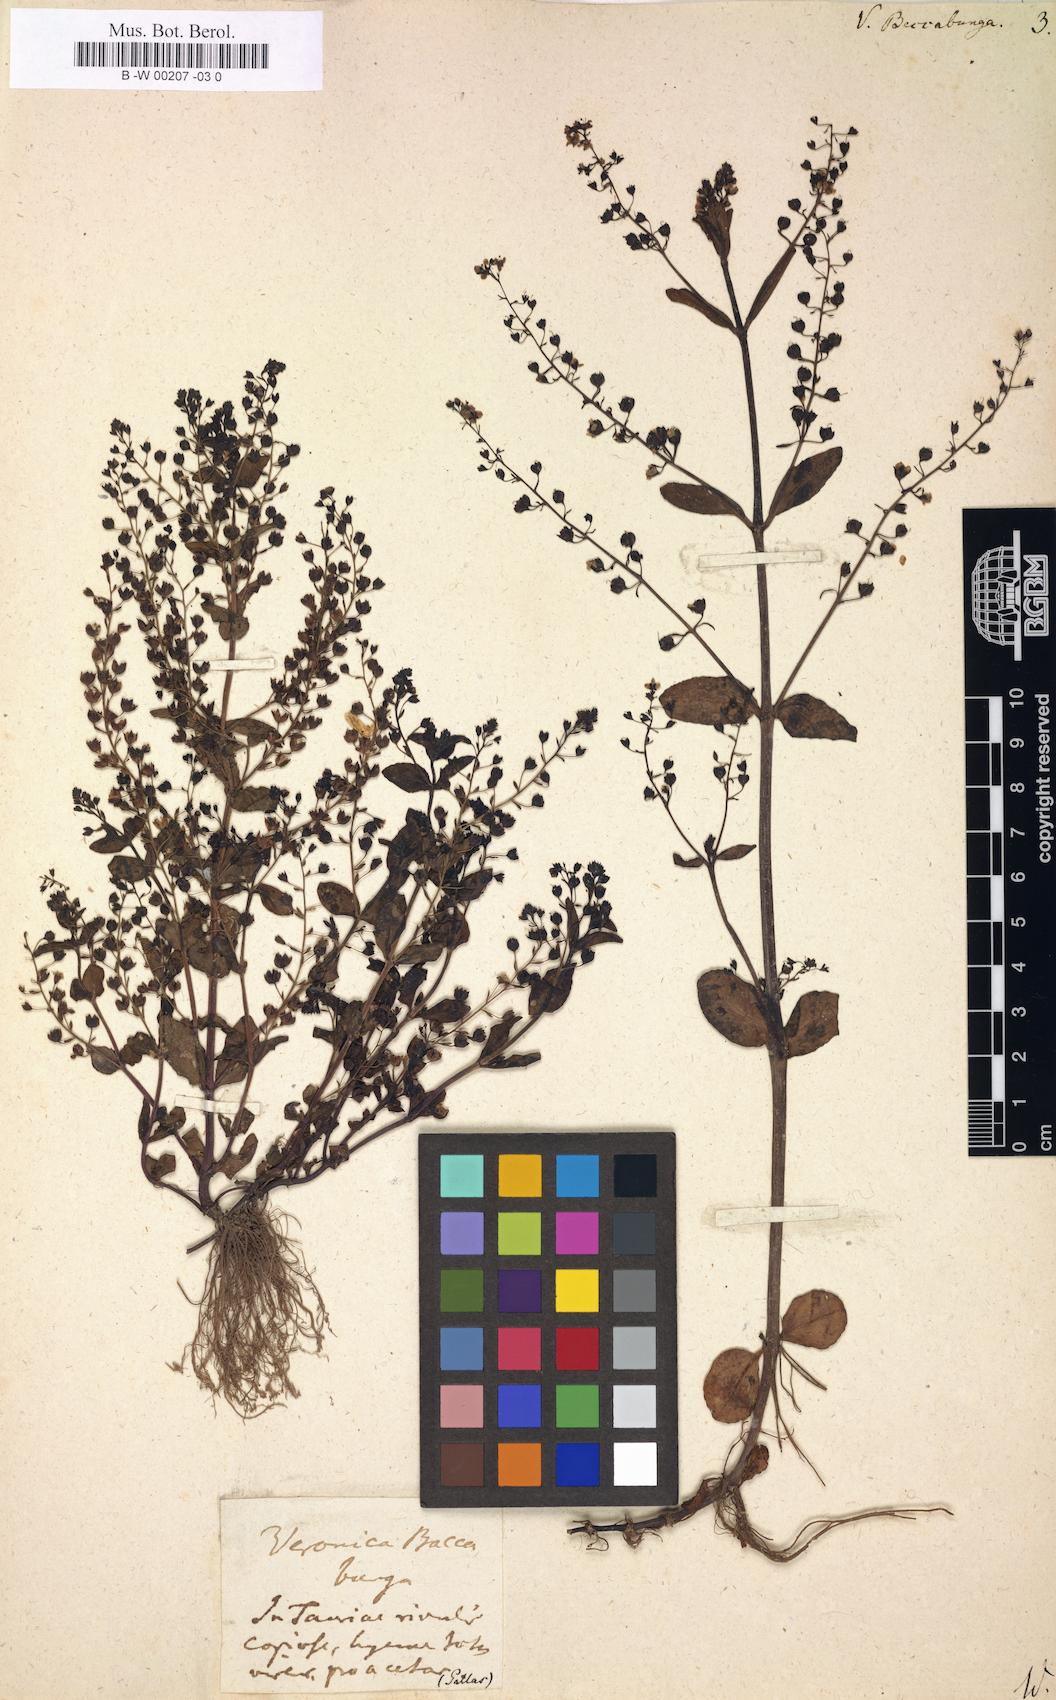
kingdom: Plantae
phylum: Tracheophyta
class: Magnoliopsida
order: Lamiales
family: Plantaginaceae
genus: Veronica
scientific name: Veronica beccabunga
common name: Brooklime
